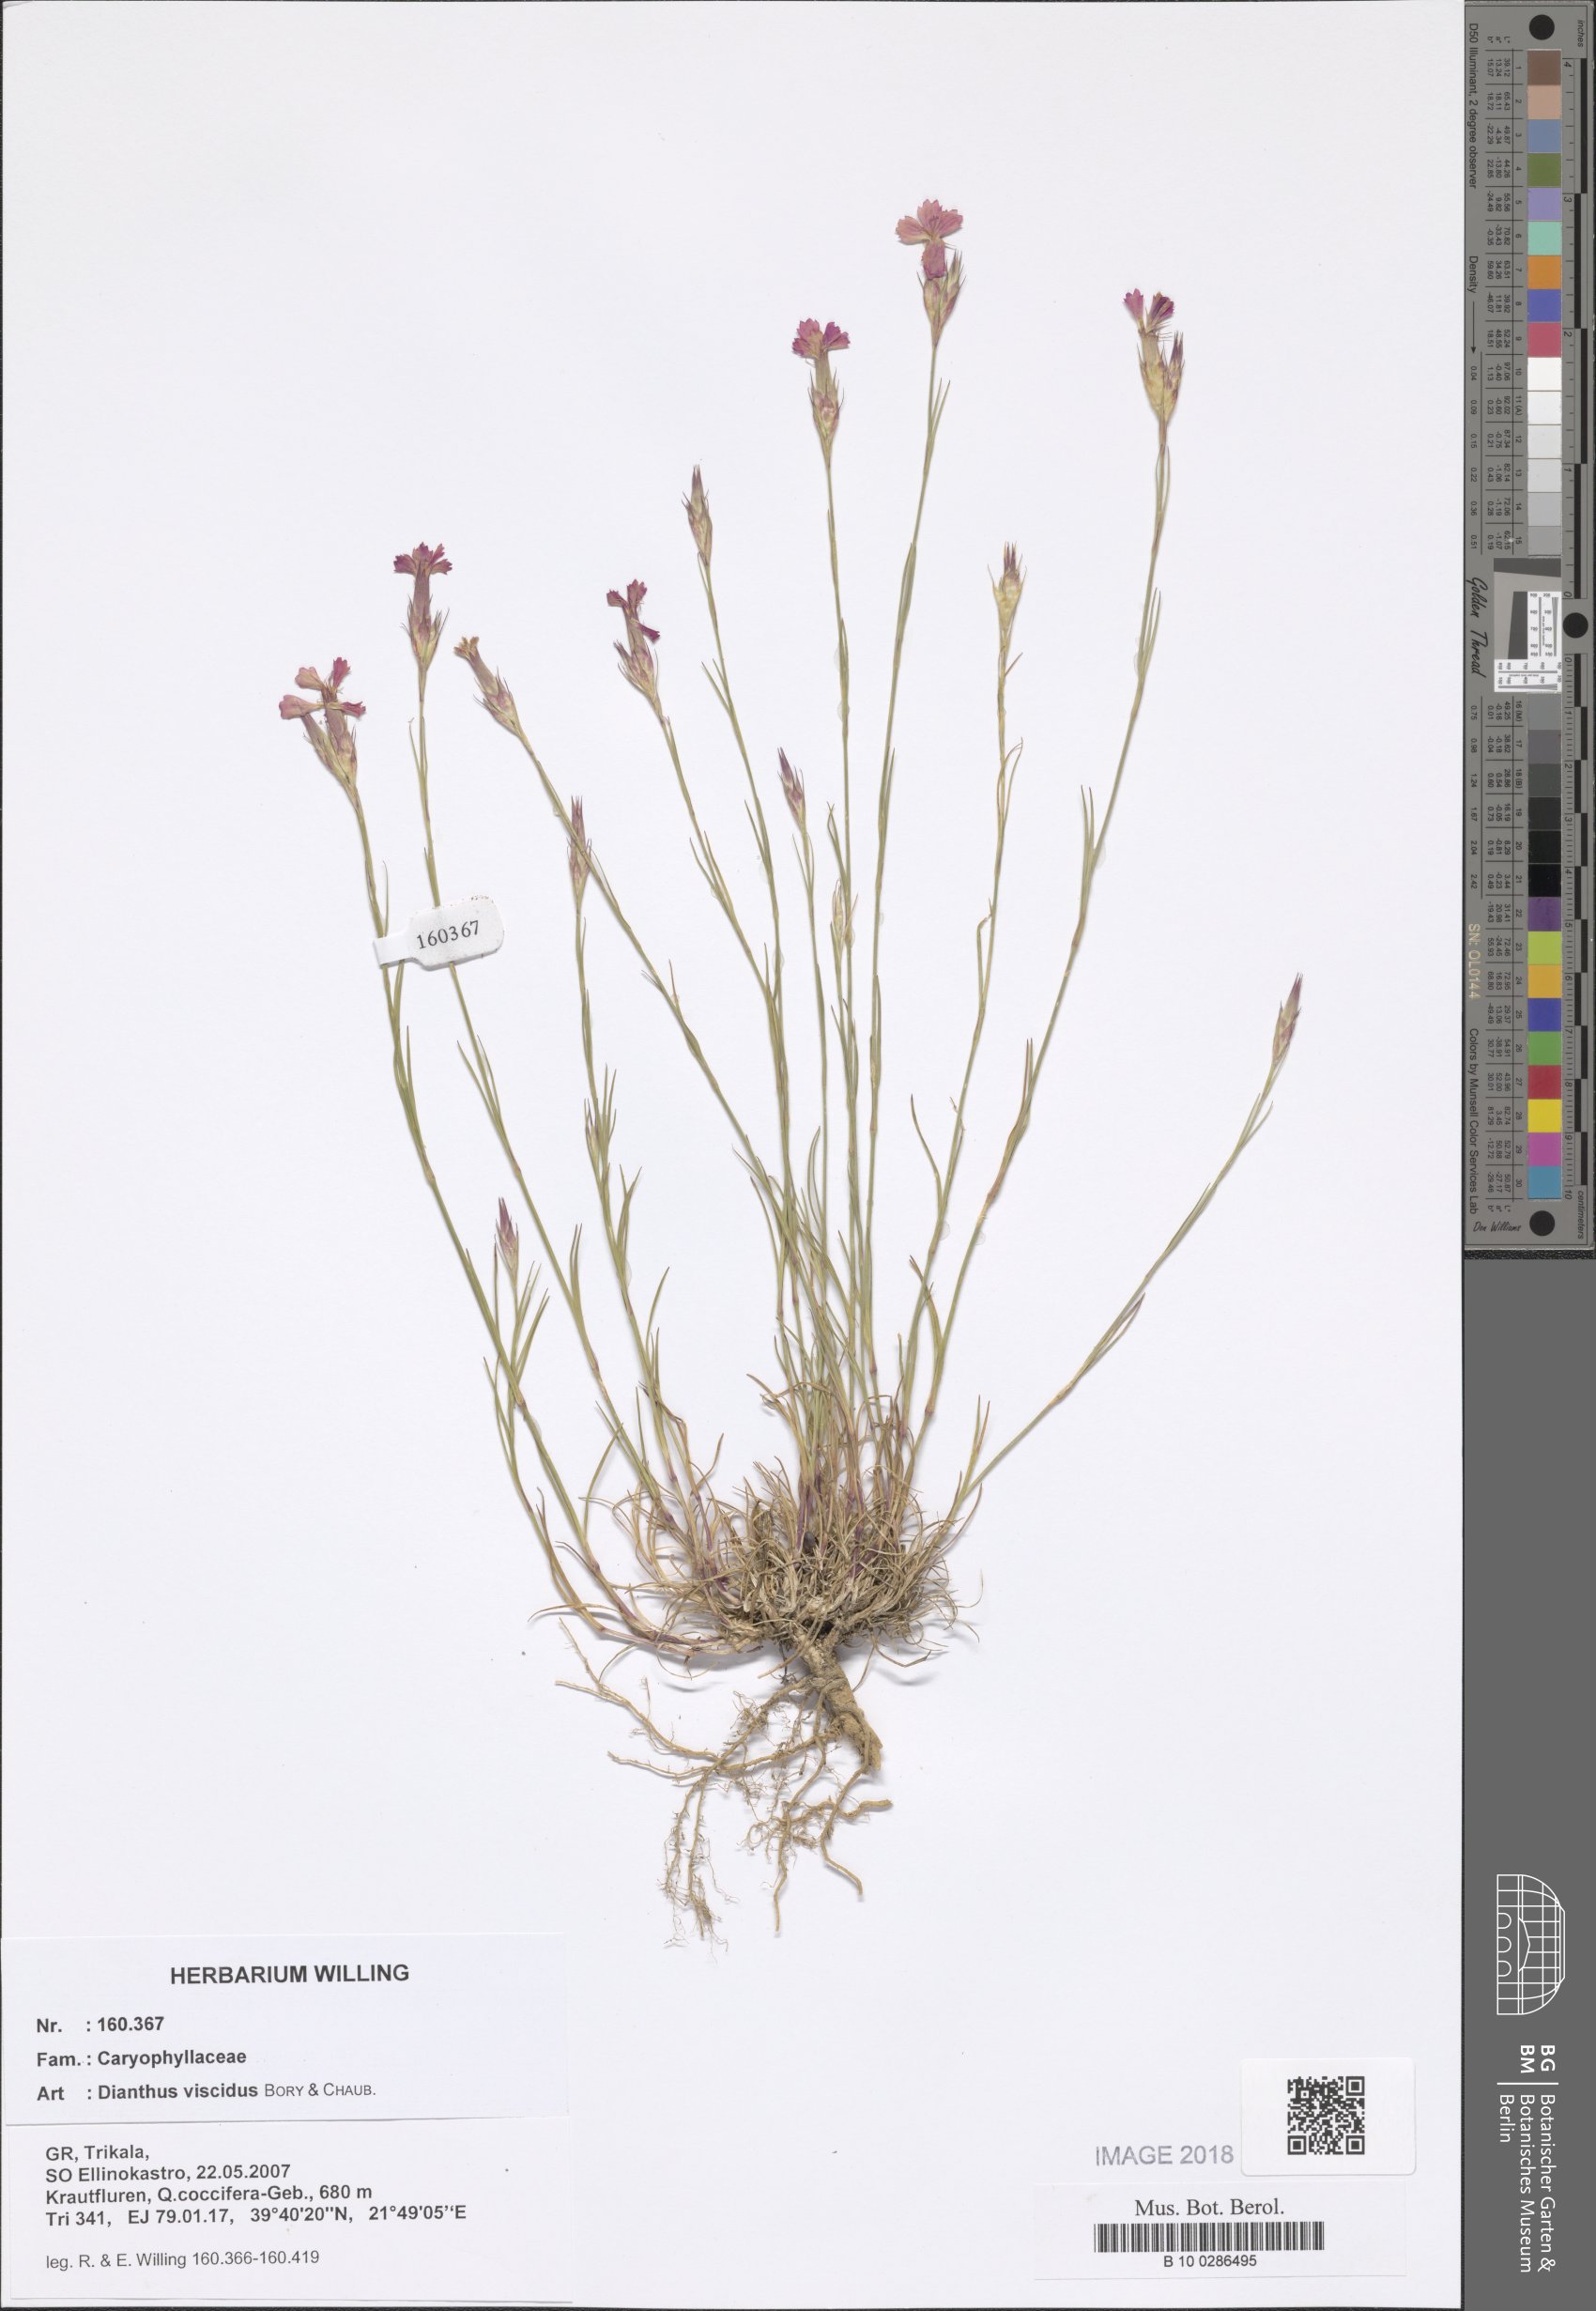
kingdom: Plantae
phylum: Tracheophyta
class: Magnoliopsida
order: Caryophyllales
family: Caryophyllaceae
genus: Dianthus
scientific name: Dianthus viscidus
